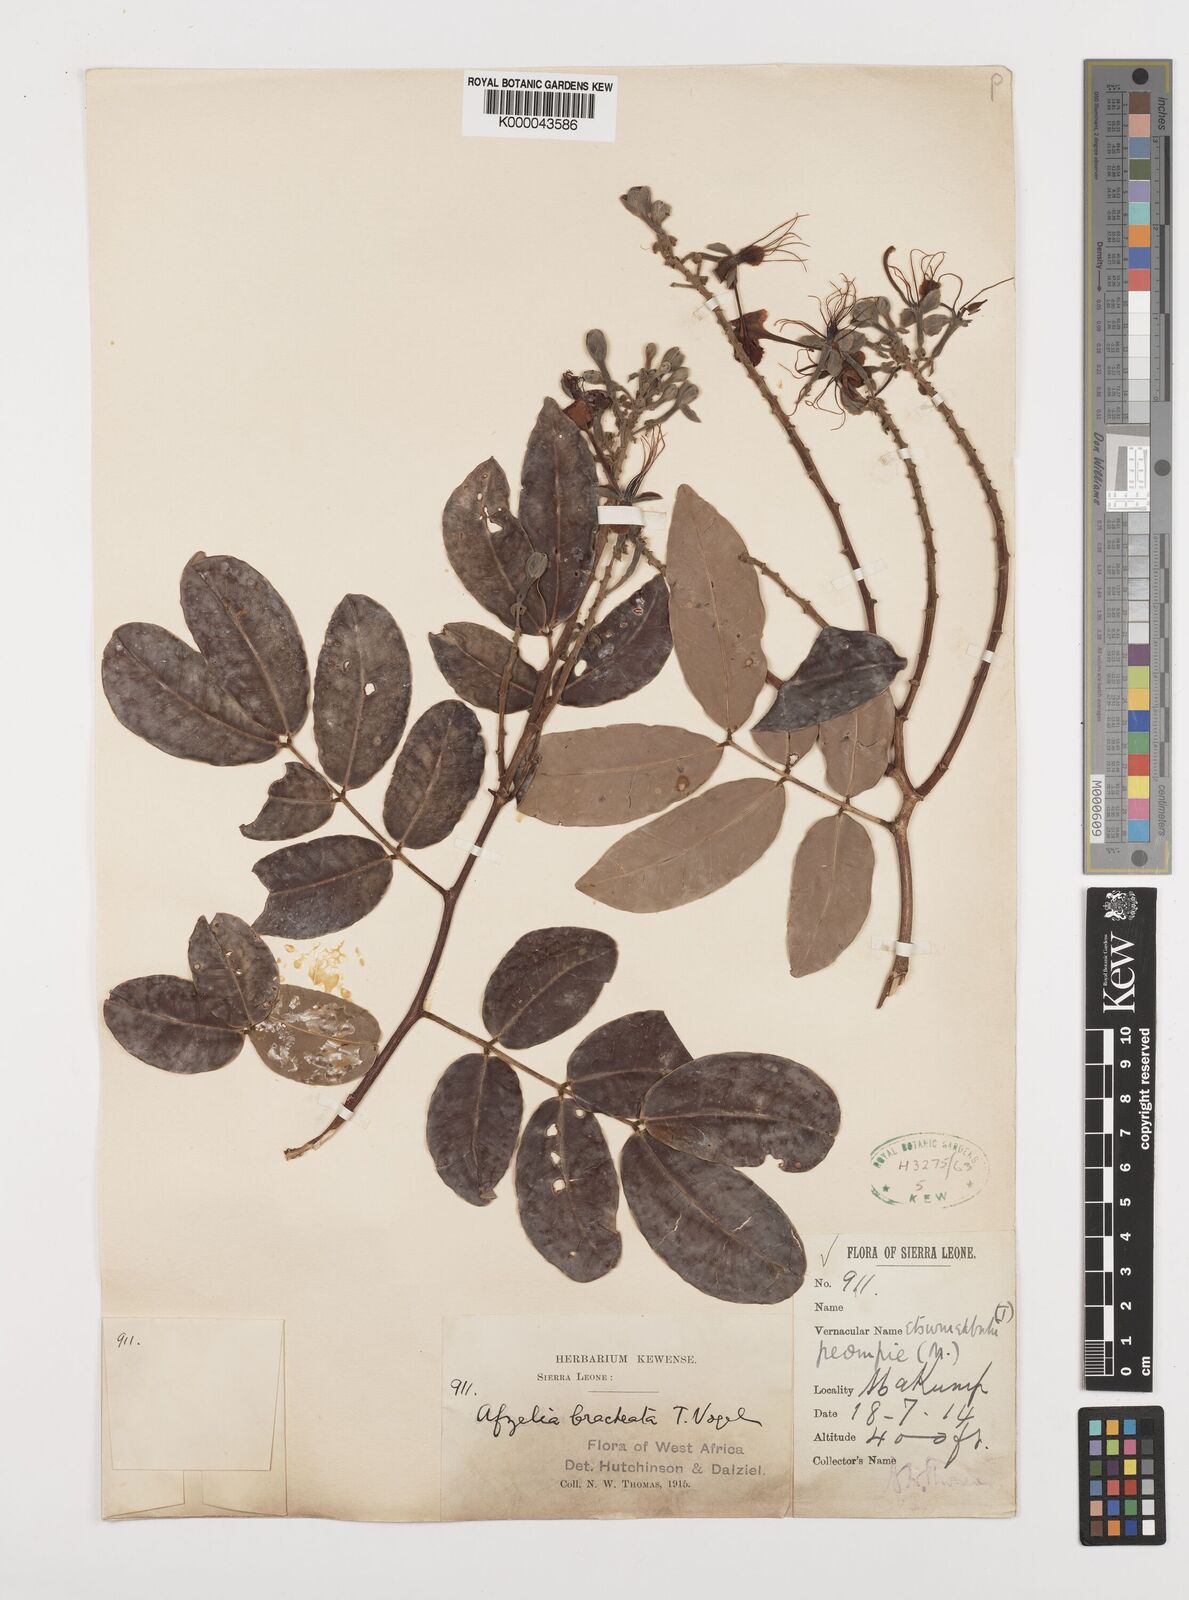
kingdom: Plantae
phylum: Tracheophyta
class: Magnoliopsida
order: Fabales
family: Fabaceae
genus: Afzelia
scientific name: Afzelia
